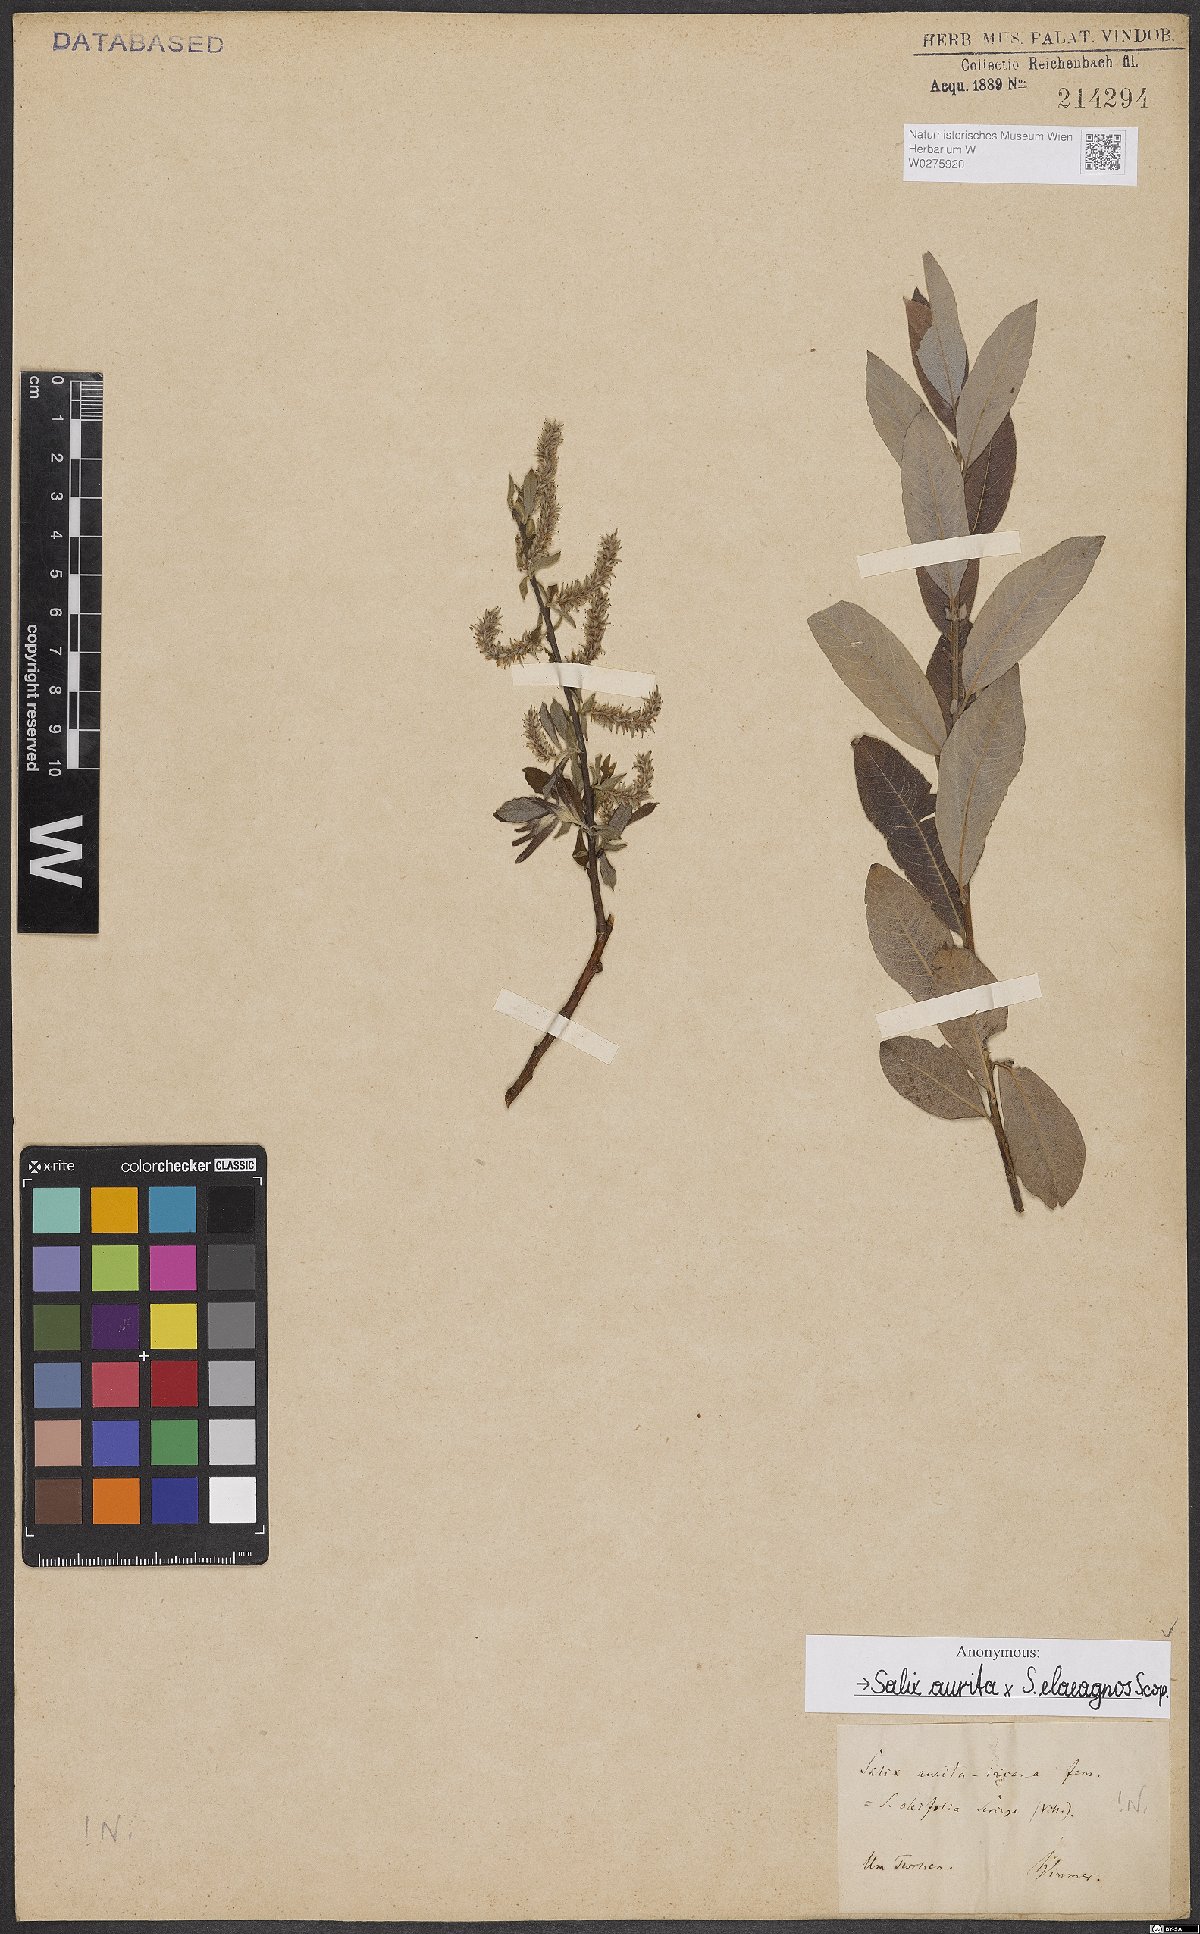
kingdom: Plantae
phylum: Tracheophyta
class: Magnoliopsida
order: Malpighiales
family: Salicaceae
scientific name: Salicaceae
